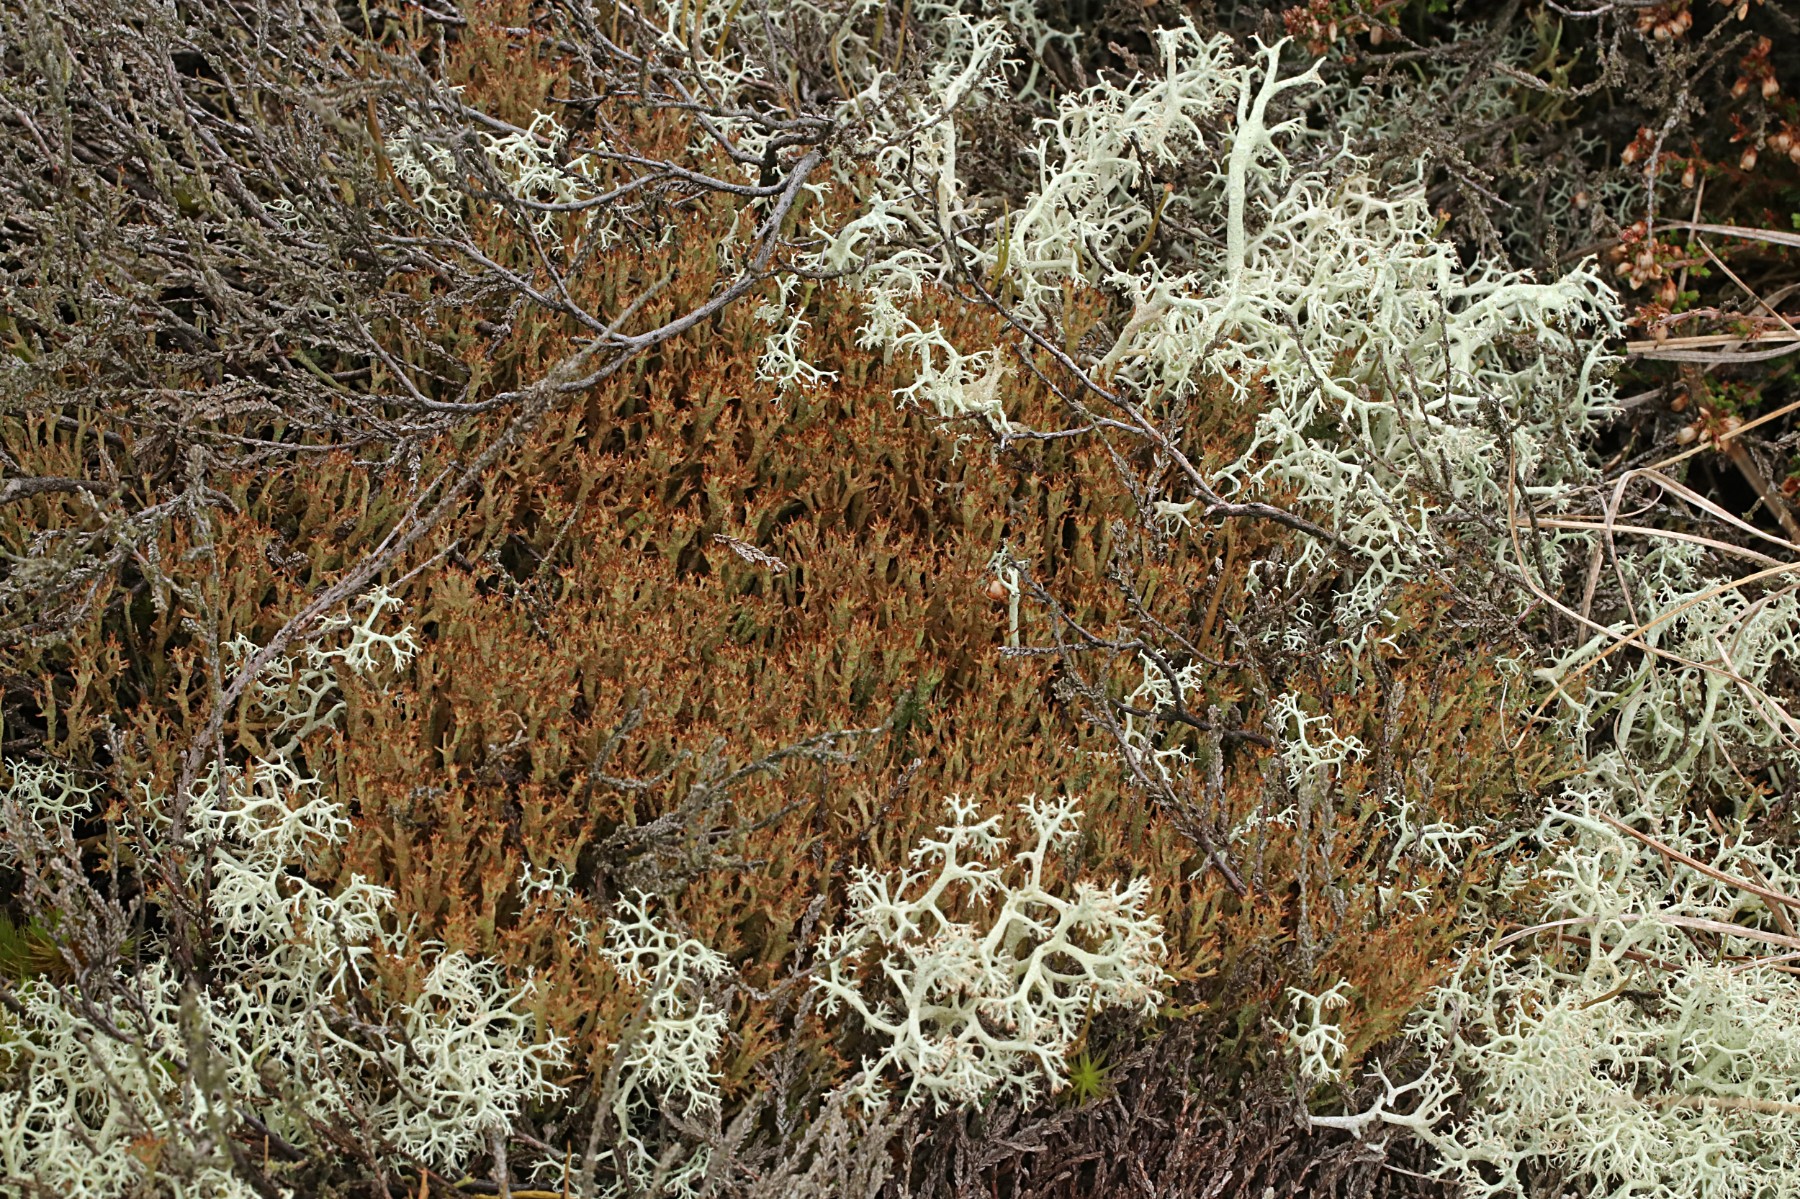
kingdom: Fungi
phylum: Ascomycota
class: Lecanoromycetes
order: Lecanorales
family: Cladoniaceae
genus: Cladonia
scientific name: Cladonia crispata
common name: takket bægerlav
